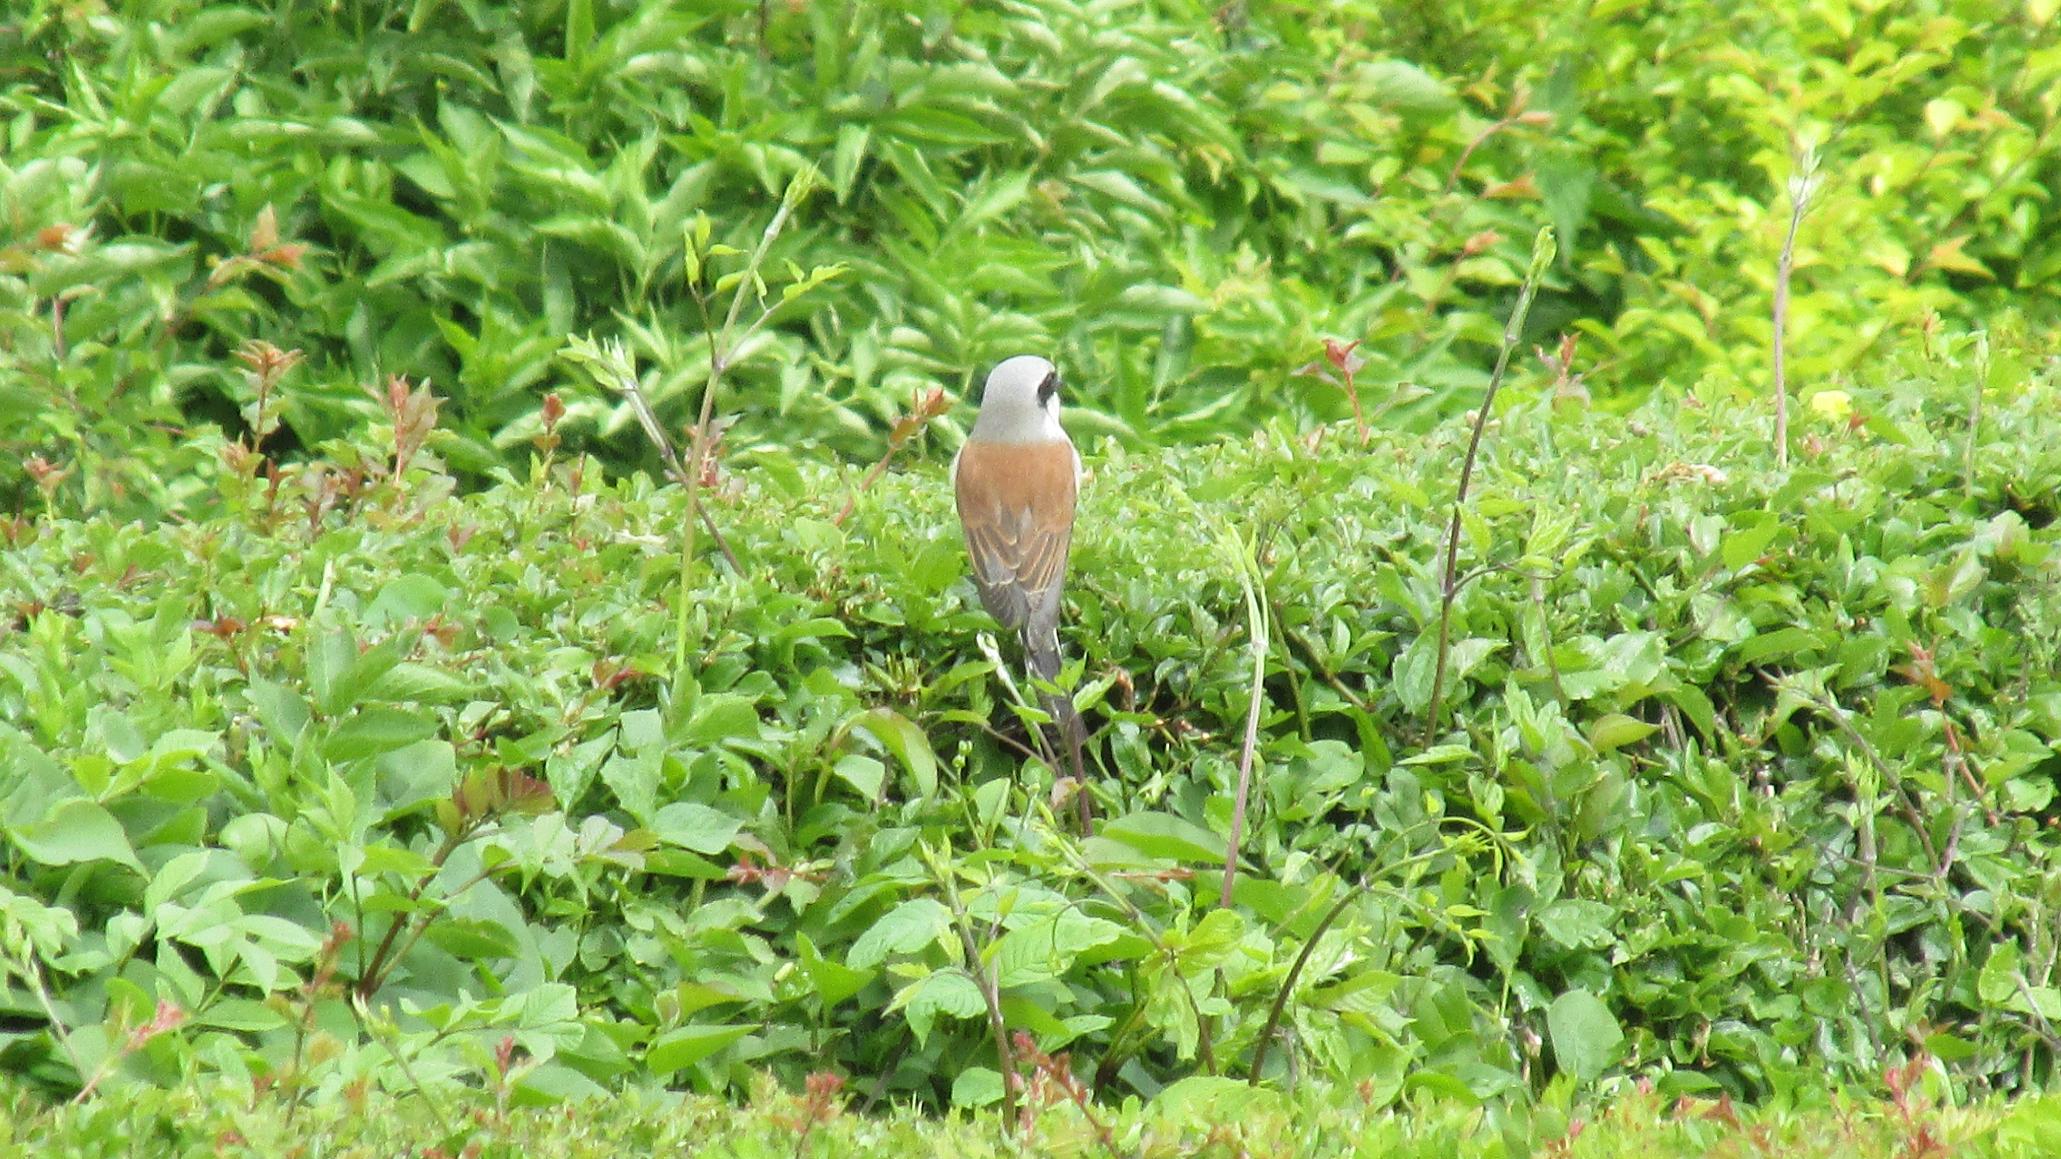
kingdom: Animalia
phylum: Chordata
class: Aves
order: Passeriformes
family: Laniidae
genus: Lanius
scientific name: Lanius collurio
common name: Rødrygget tornskade
